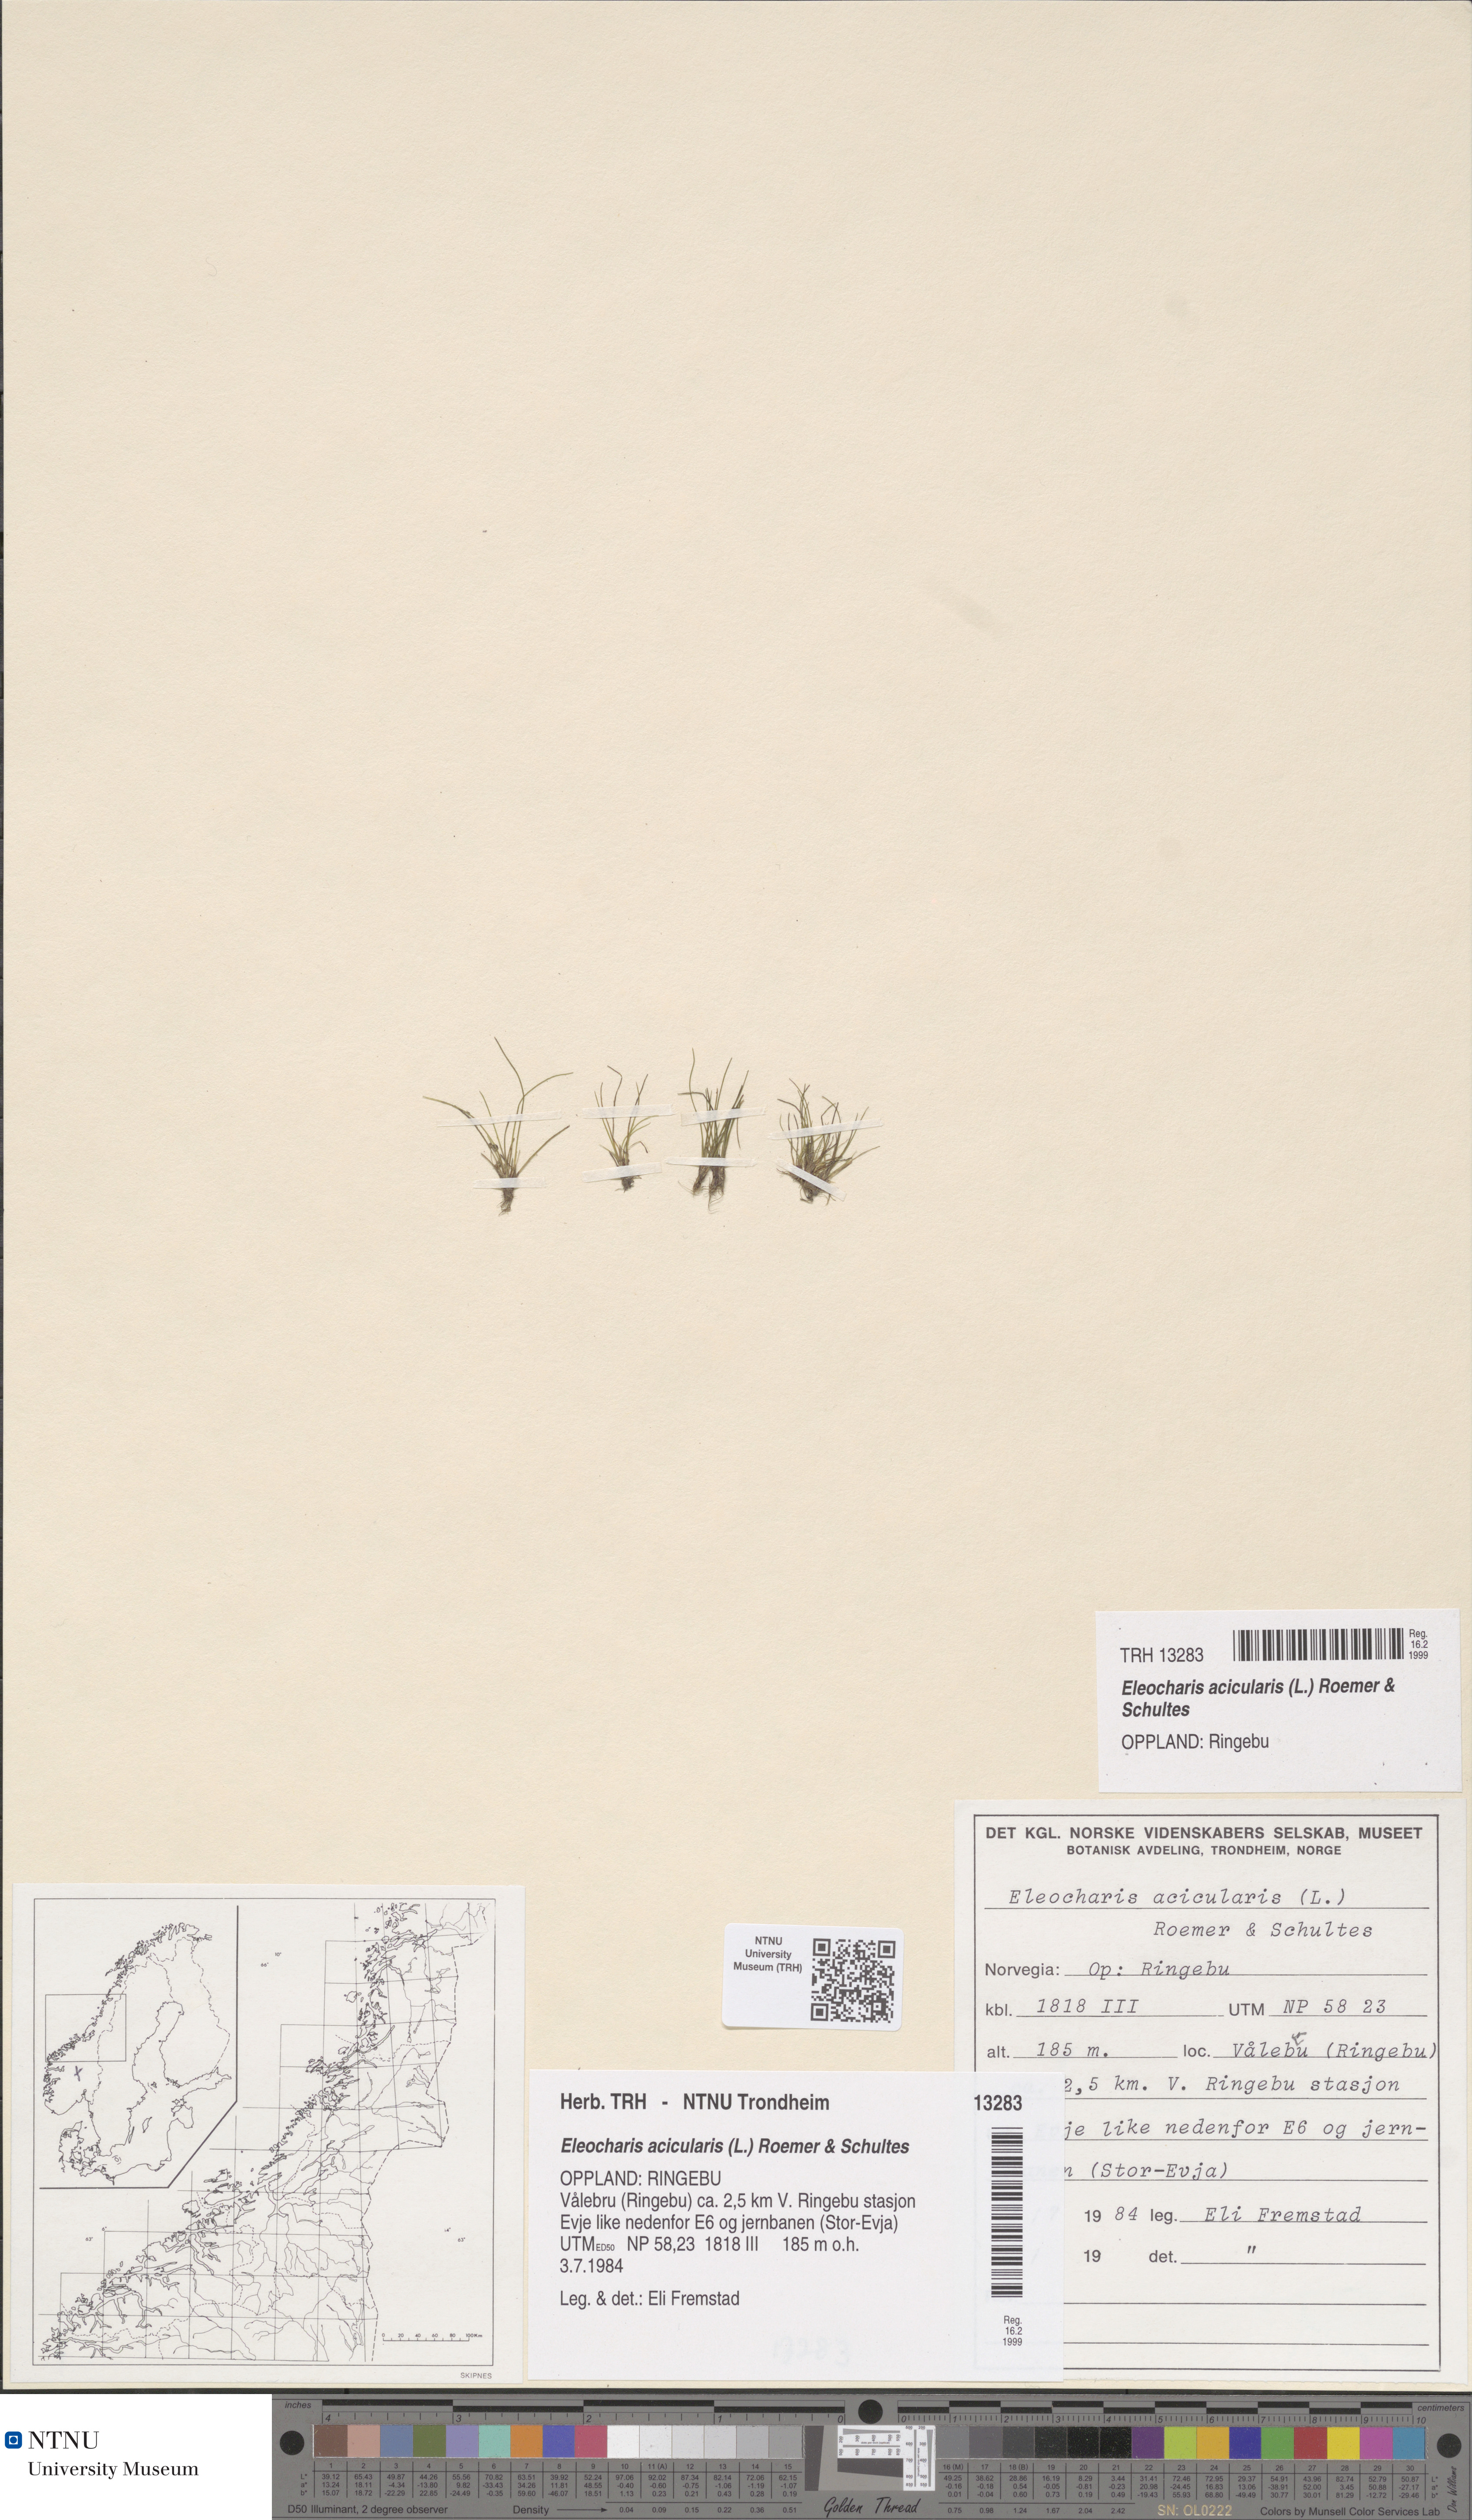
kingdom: Plantae
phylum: Tracheophyta
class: Liliopsida
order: Poales
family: Cyperaceae
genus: Eleocharis
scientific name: Eleocharis acicularis
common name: Needle spike-rush
